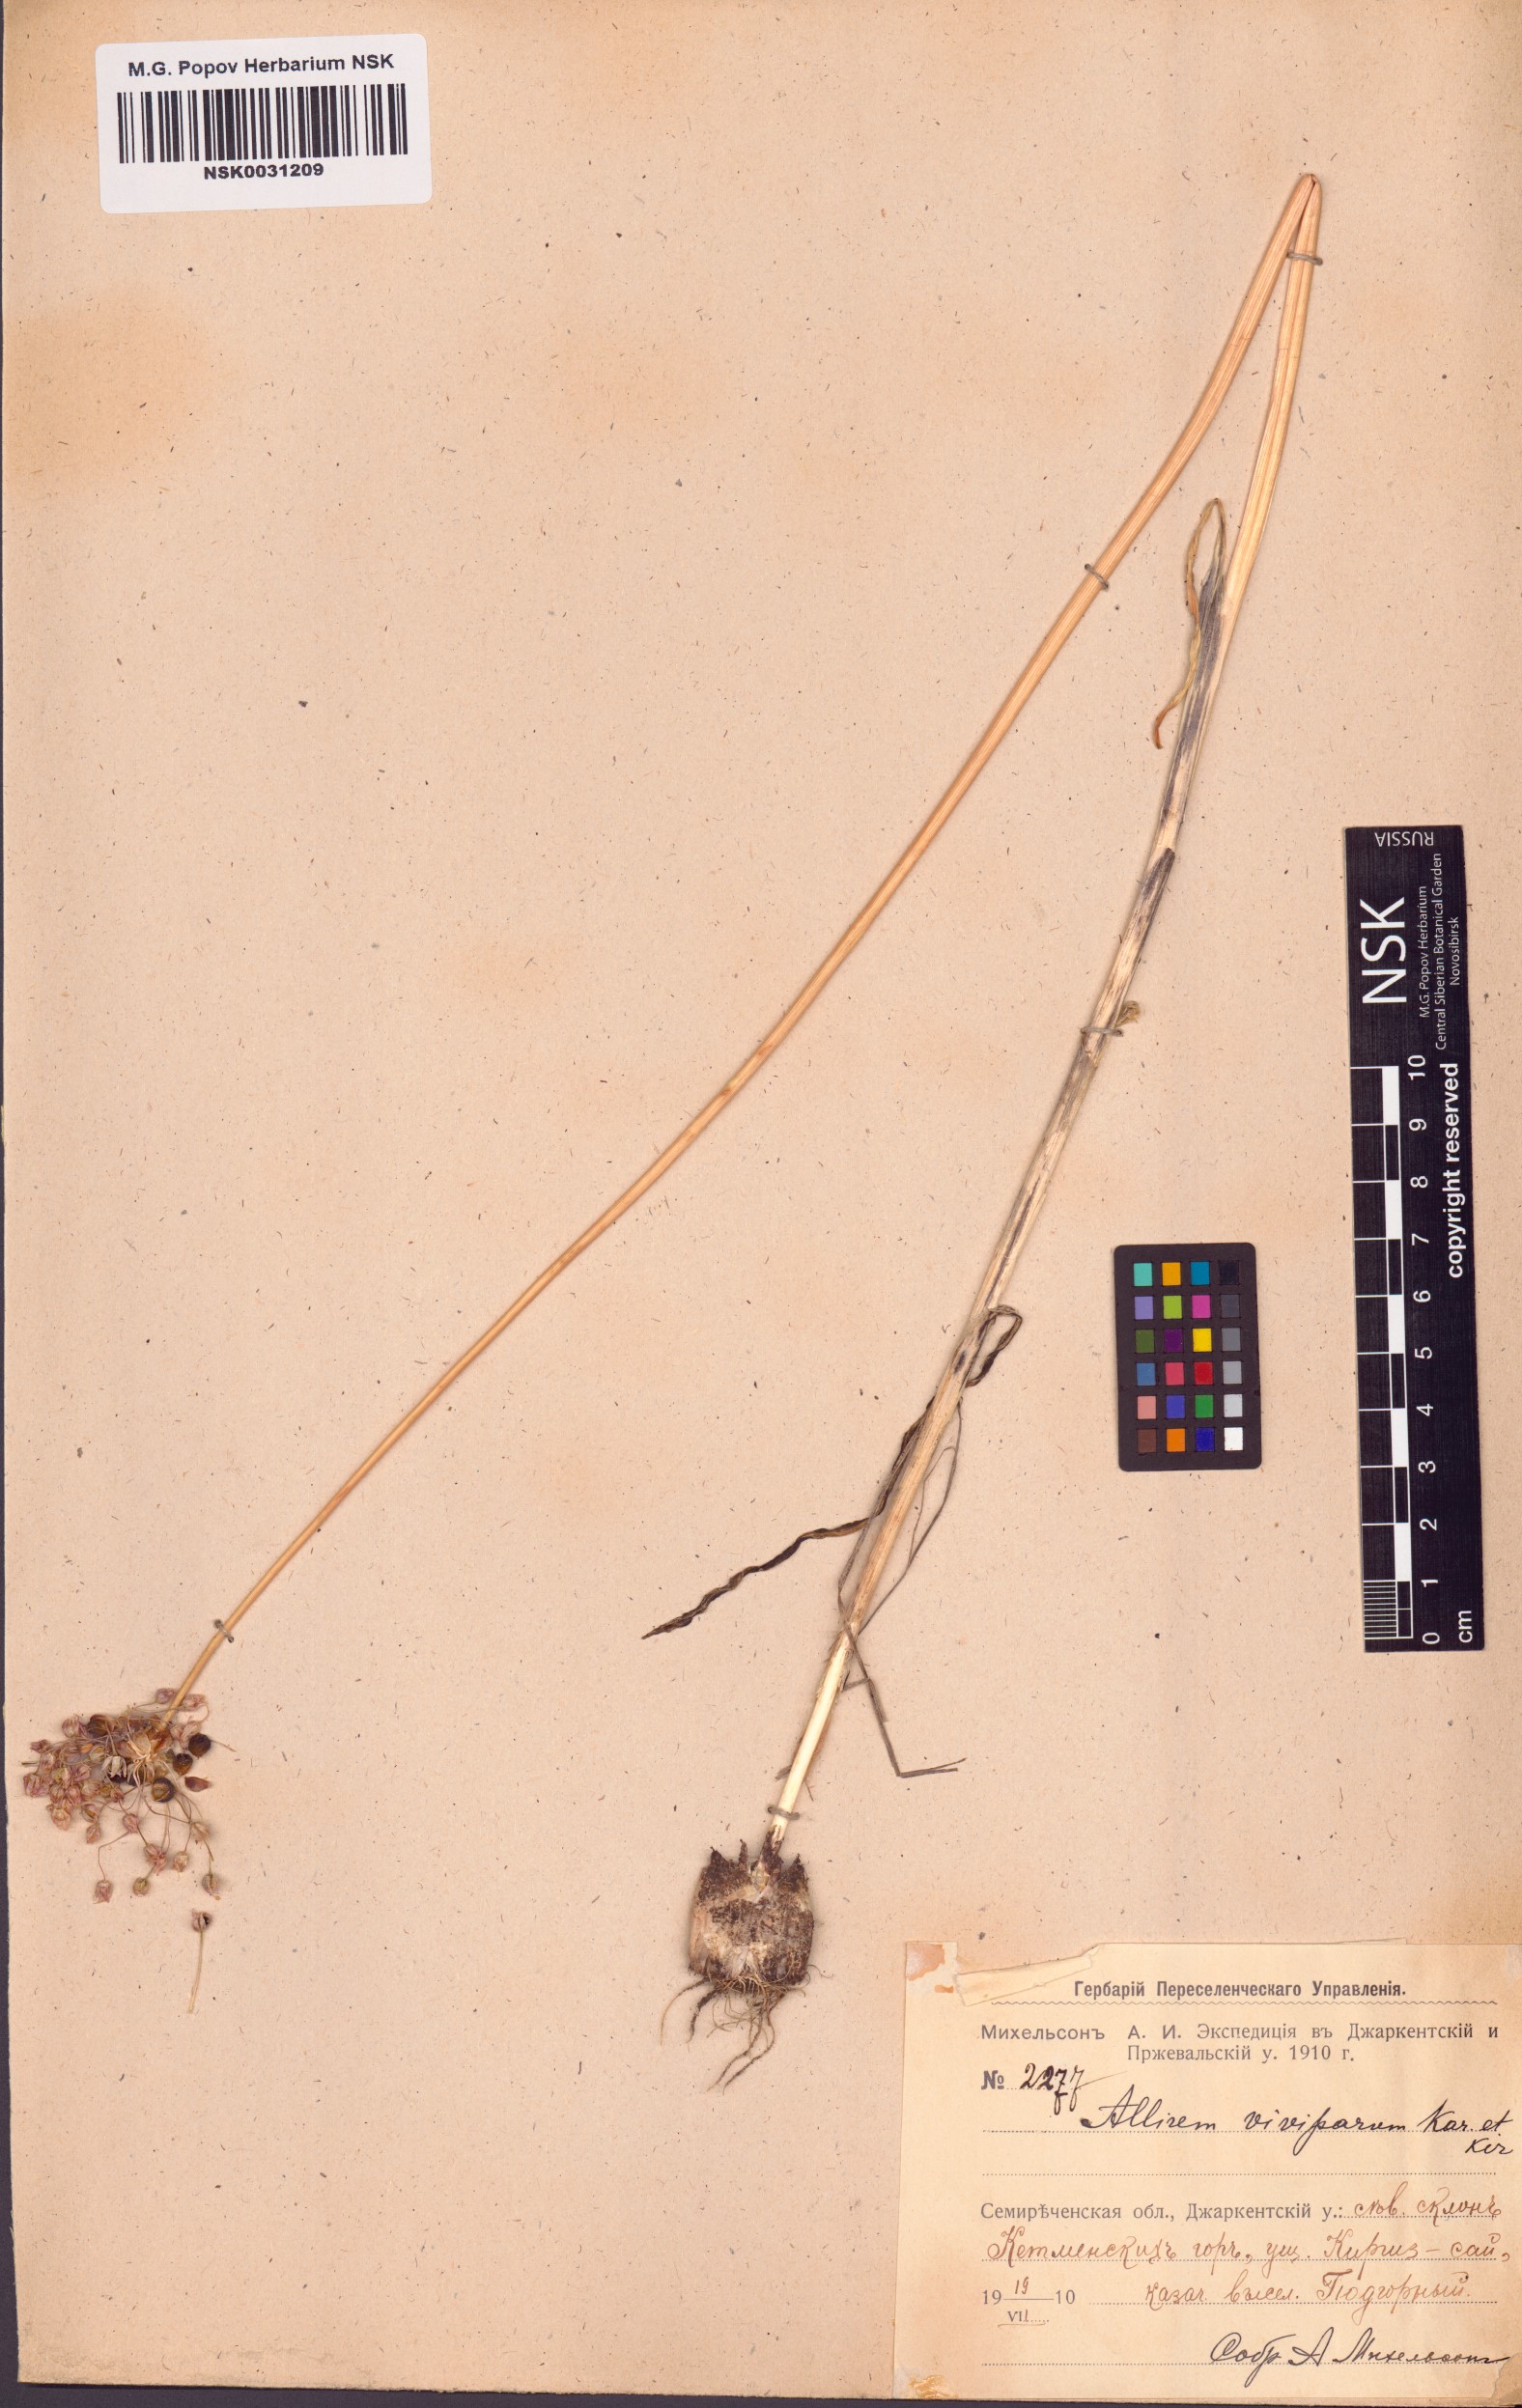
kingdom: Plantae
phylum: Tracheophyta
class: Liliopsida
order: Asparagales
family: Amaryllidaceae
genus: Allium
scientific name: Allium caeruleum
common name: Blue-of-the-heavens
